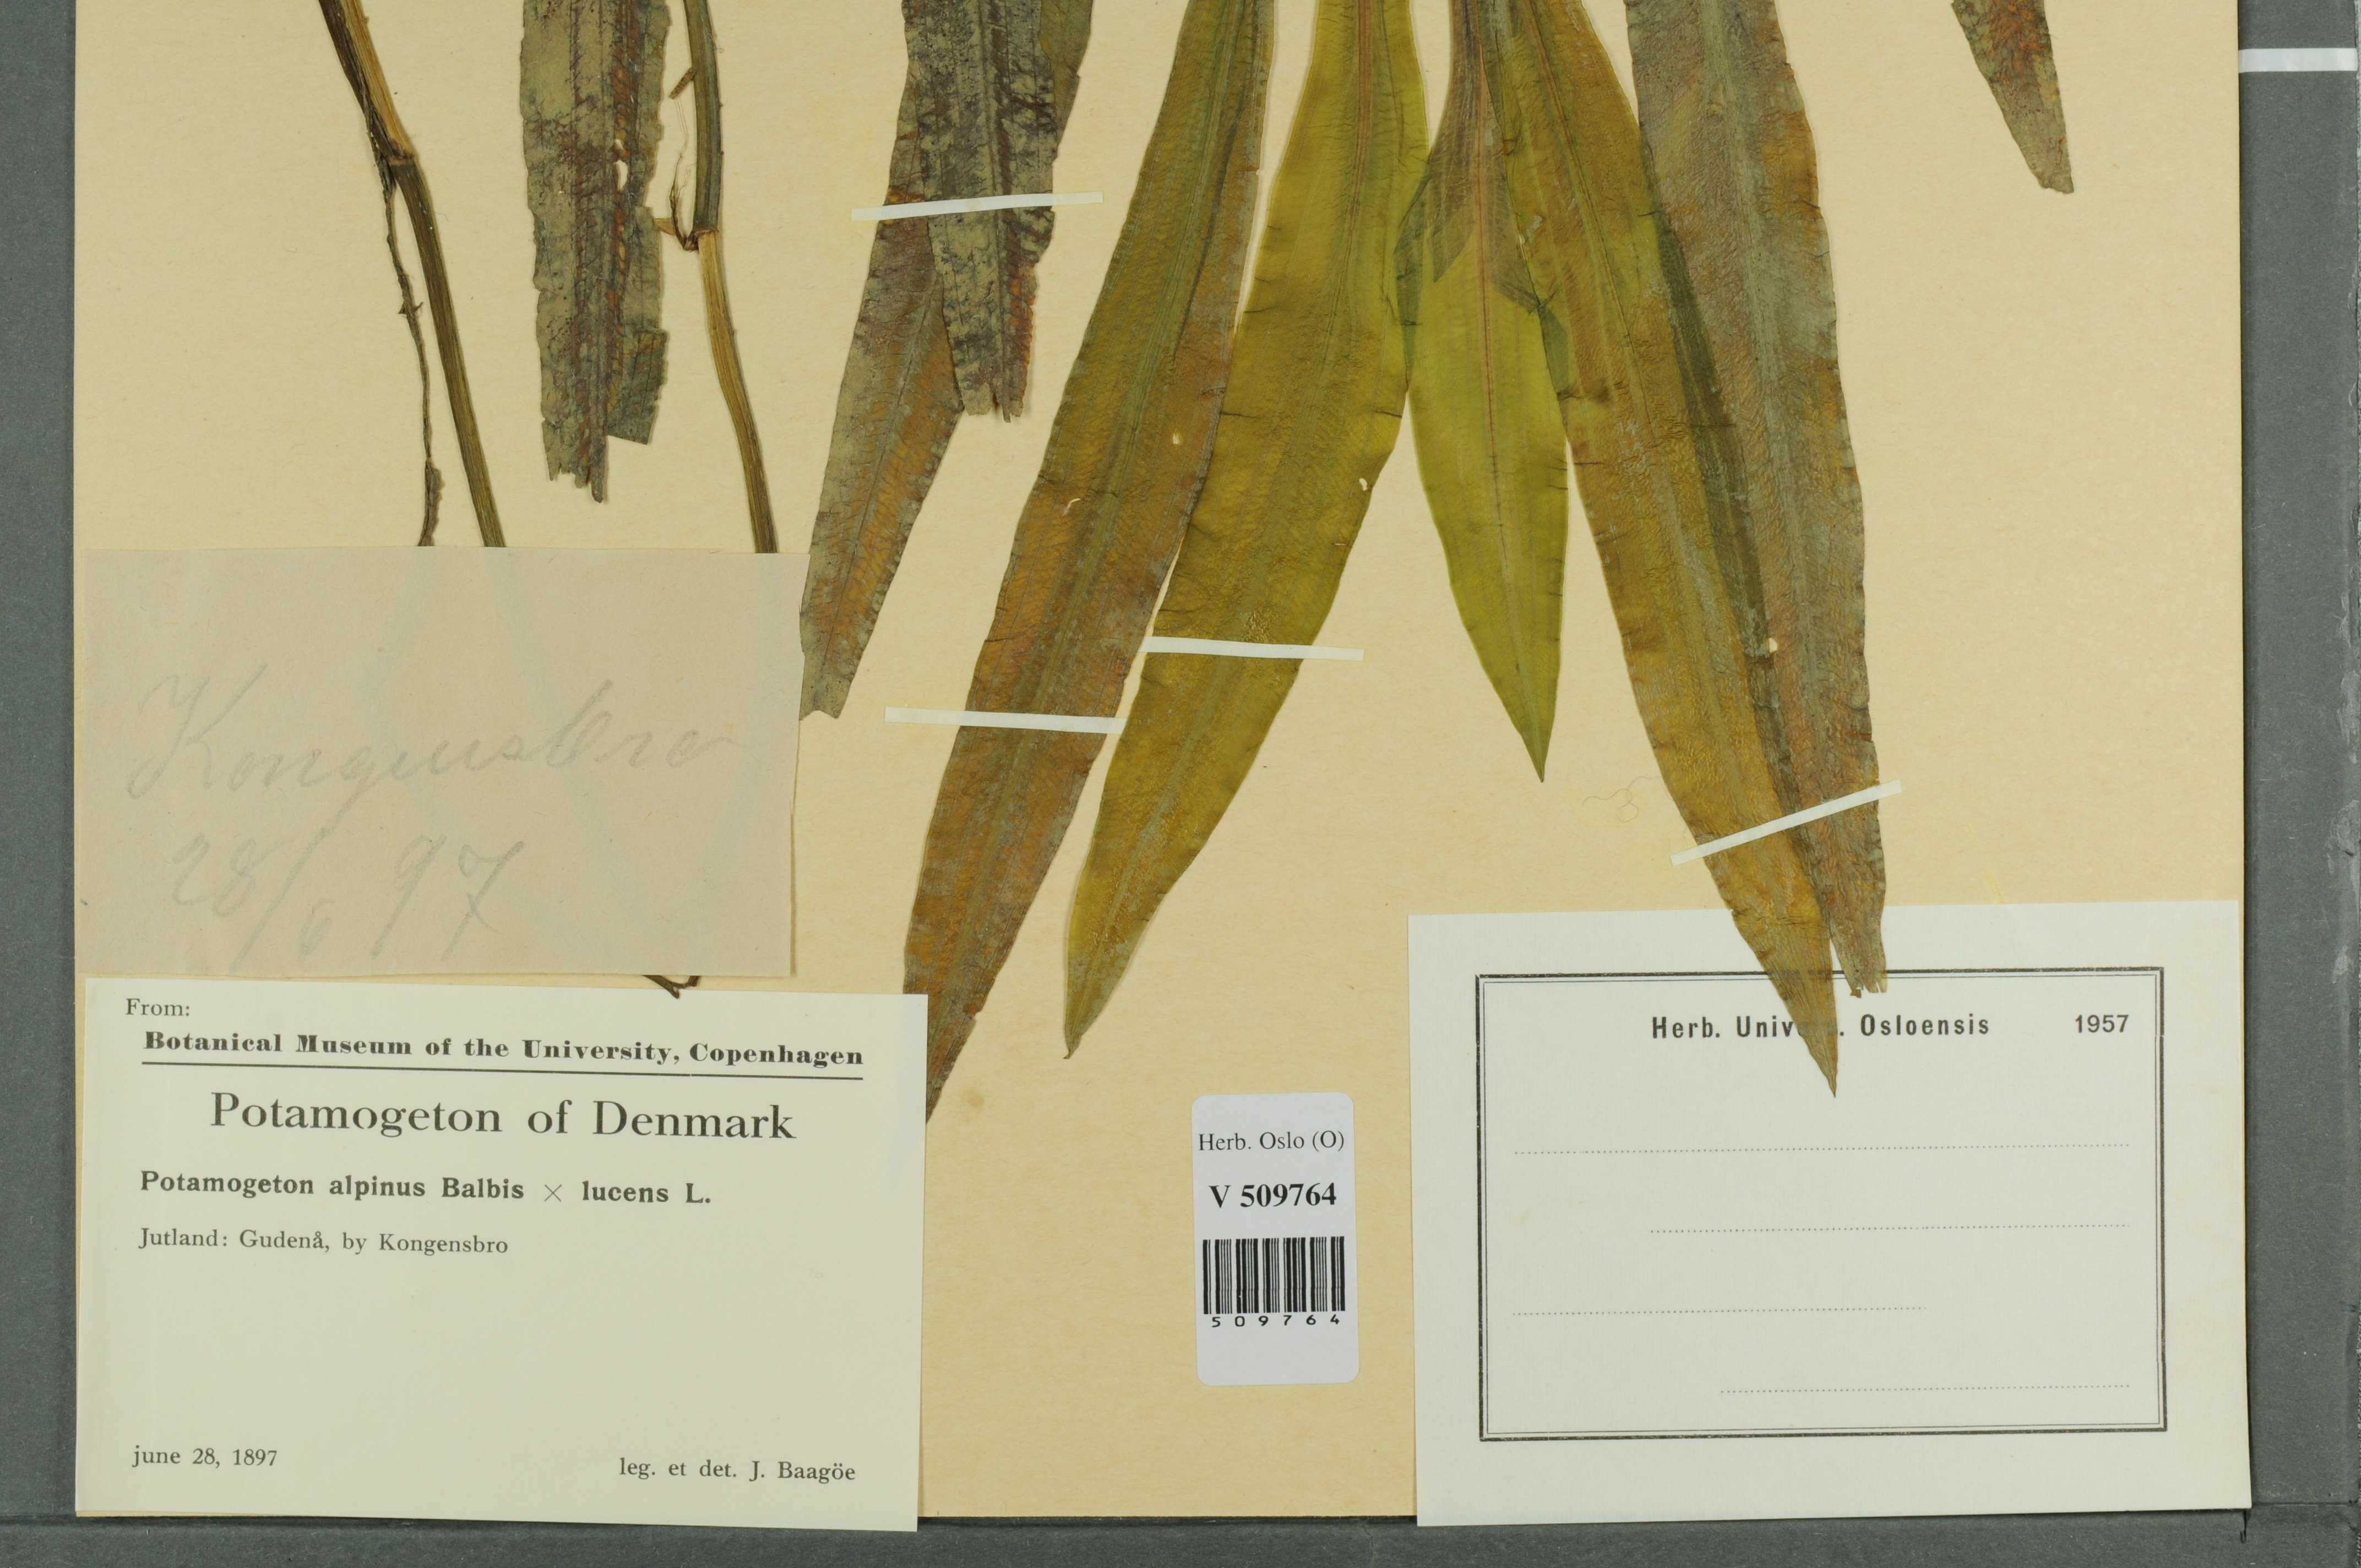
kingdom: Plantae
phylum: Tracheophyta
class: Liliopsida
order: Alismatales
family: Potamogetonaceae
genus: Potamogeton
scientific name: Potamogeton
